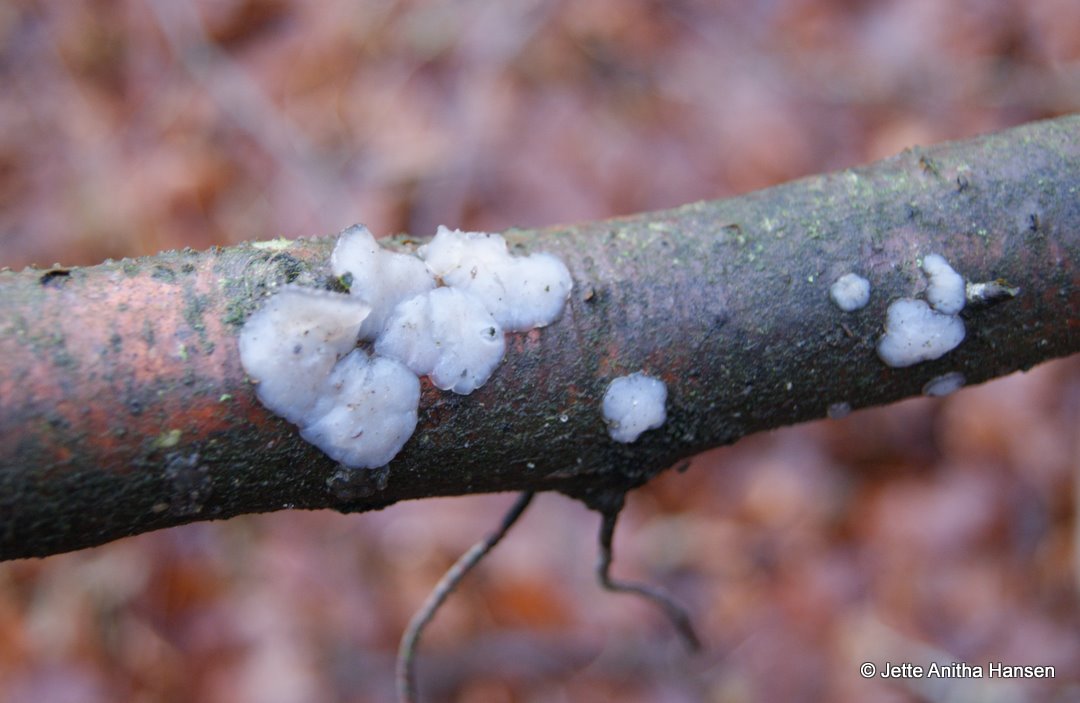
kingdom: Fungi
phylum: Basidiomycota
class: Agaricomycetes
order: Auriculariales
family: Auriculariaceae
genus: Exidia
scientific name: Exidia thuretiana
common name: hvidlig bævretop
